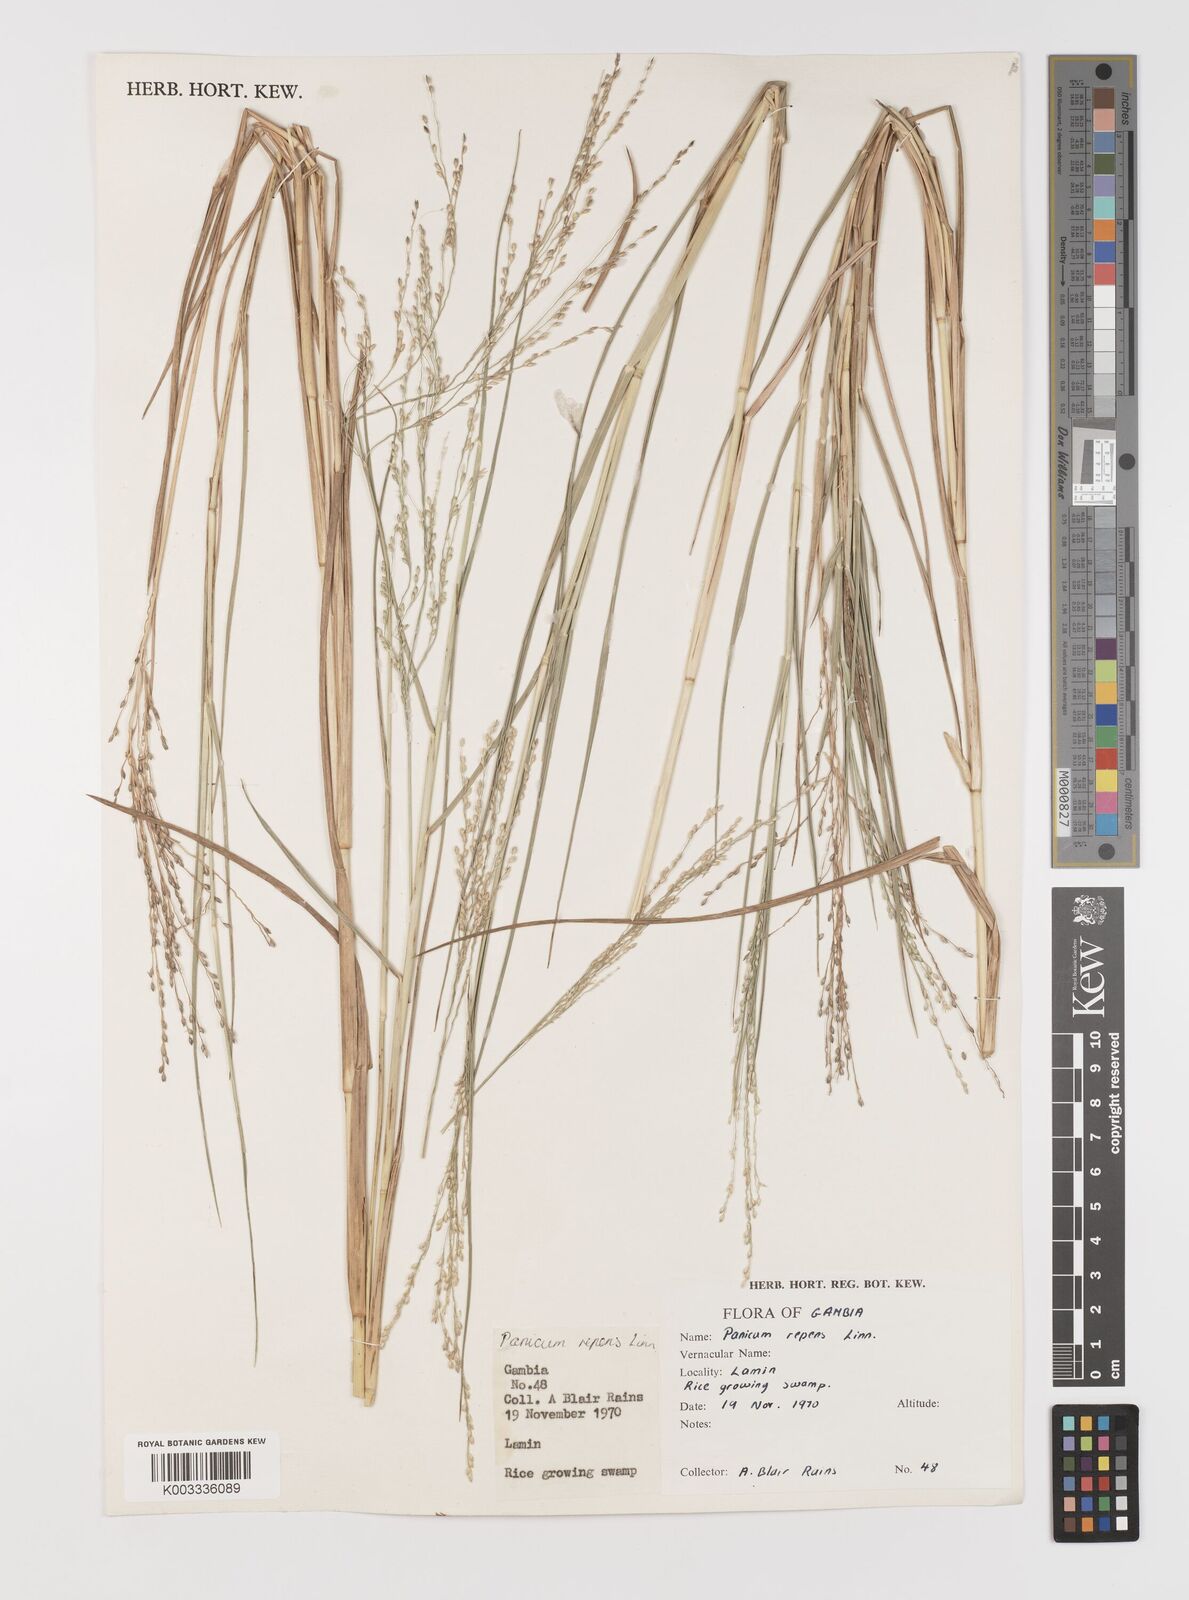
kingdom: Plantae
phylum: Tracheophyta
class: Liliopsida
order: Poales
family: Poaceae
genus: Panicum
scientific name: Panicum repens
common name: Torpedo grass
